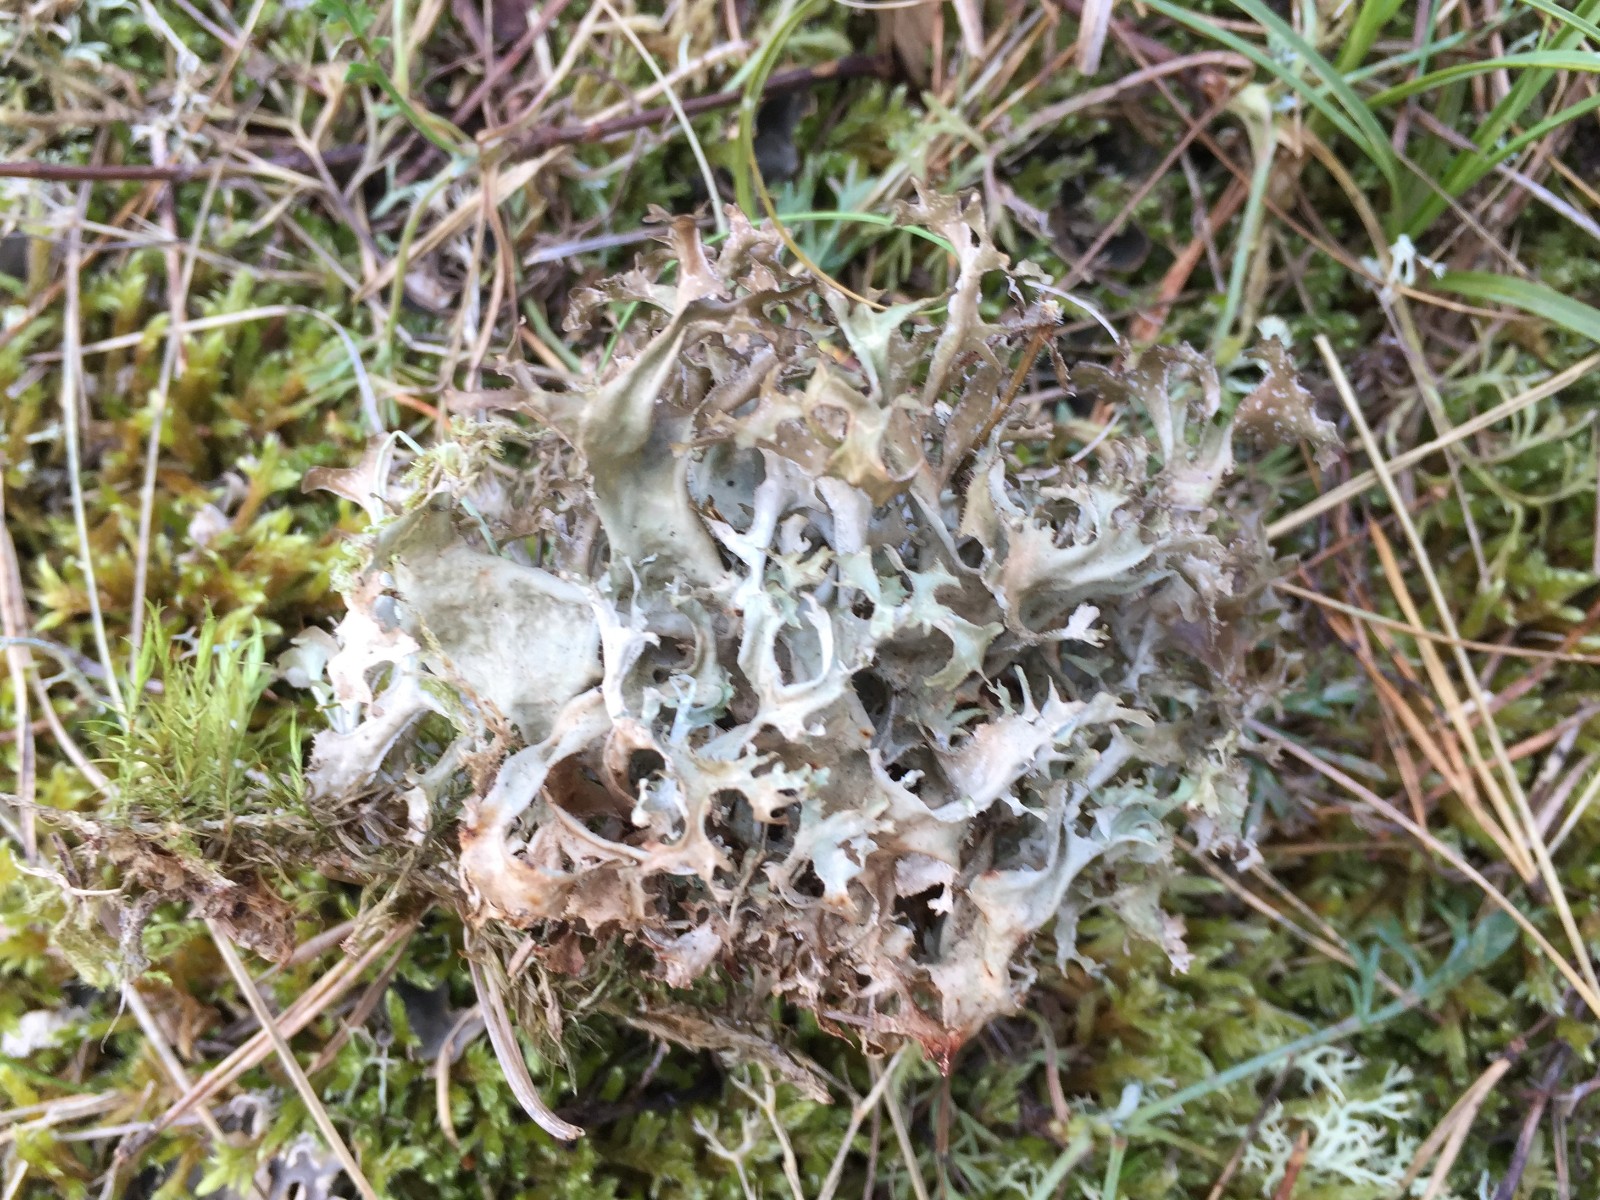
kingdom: Fungi
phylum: Ascomycota
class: Lecanoromycetes
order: Lecanorales
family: Parmeliaceae
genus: Cetraria
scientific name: Cetraria islandica
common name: islandsk kruslav
